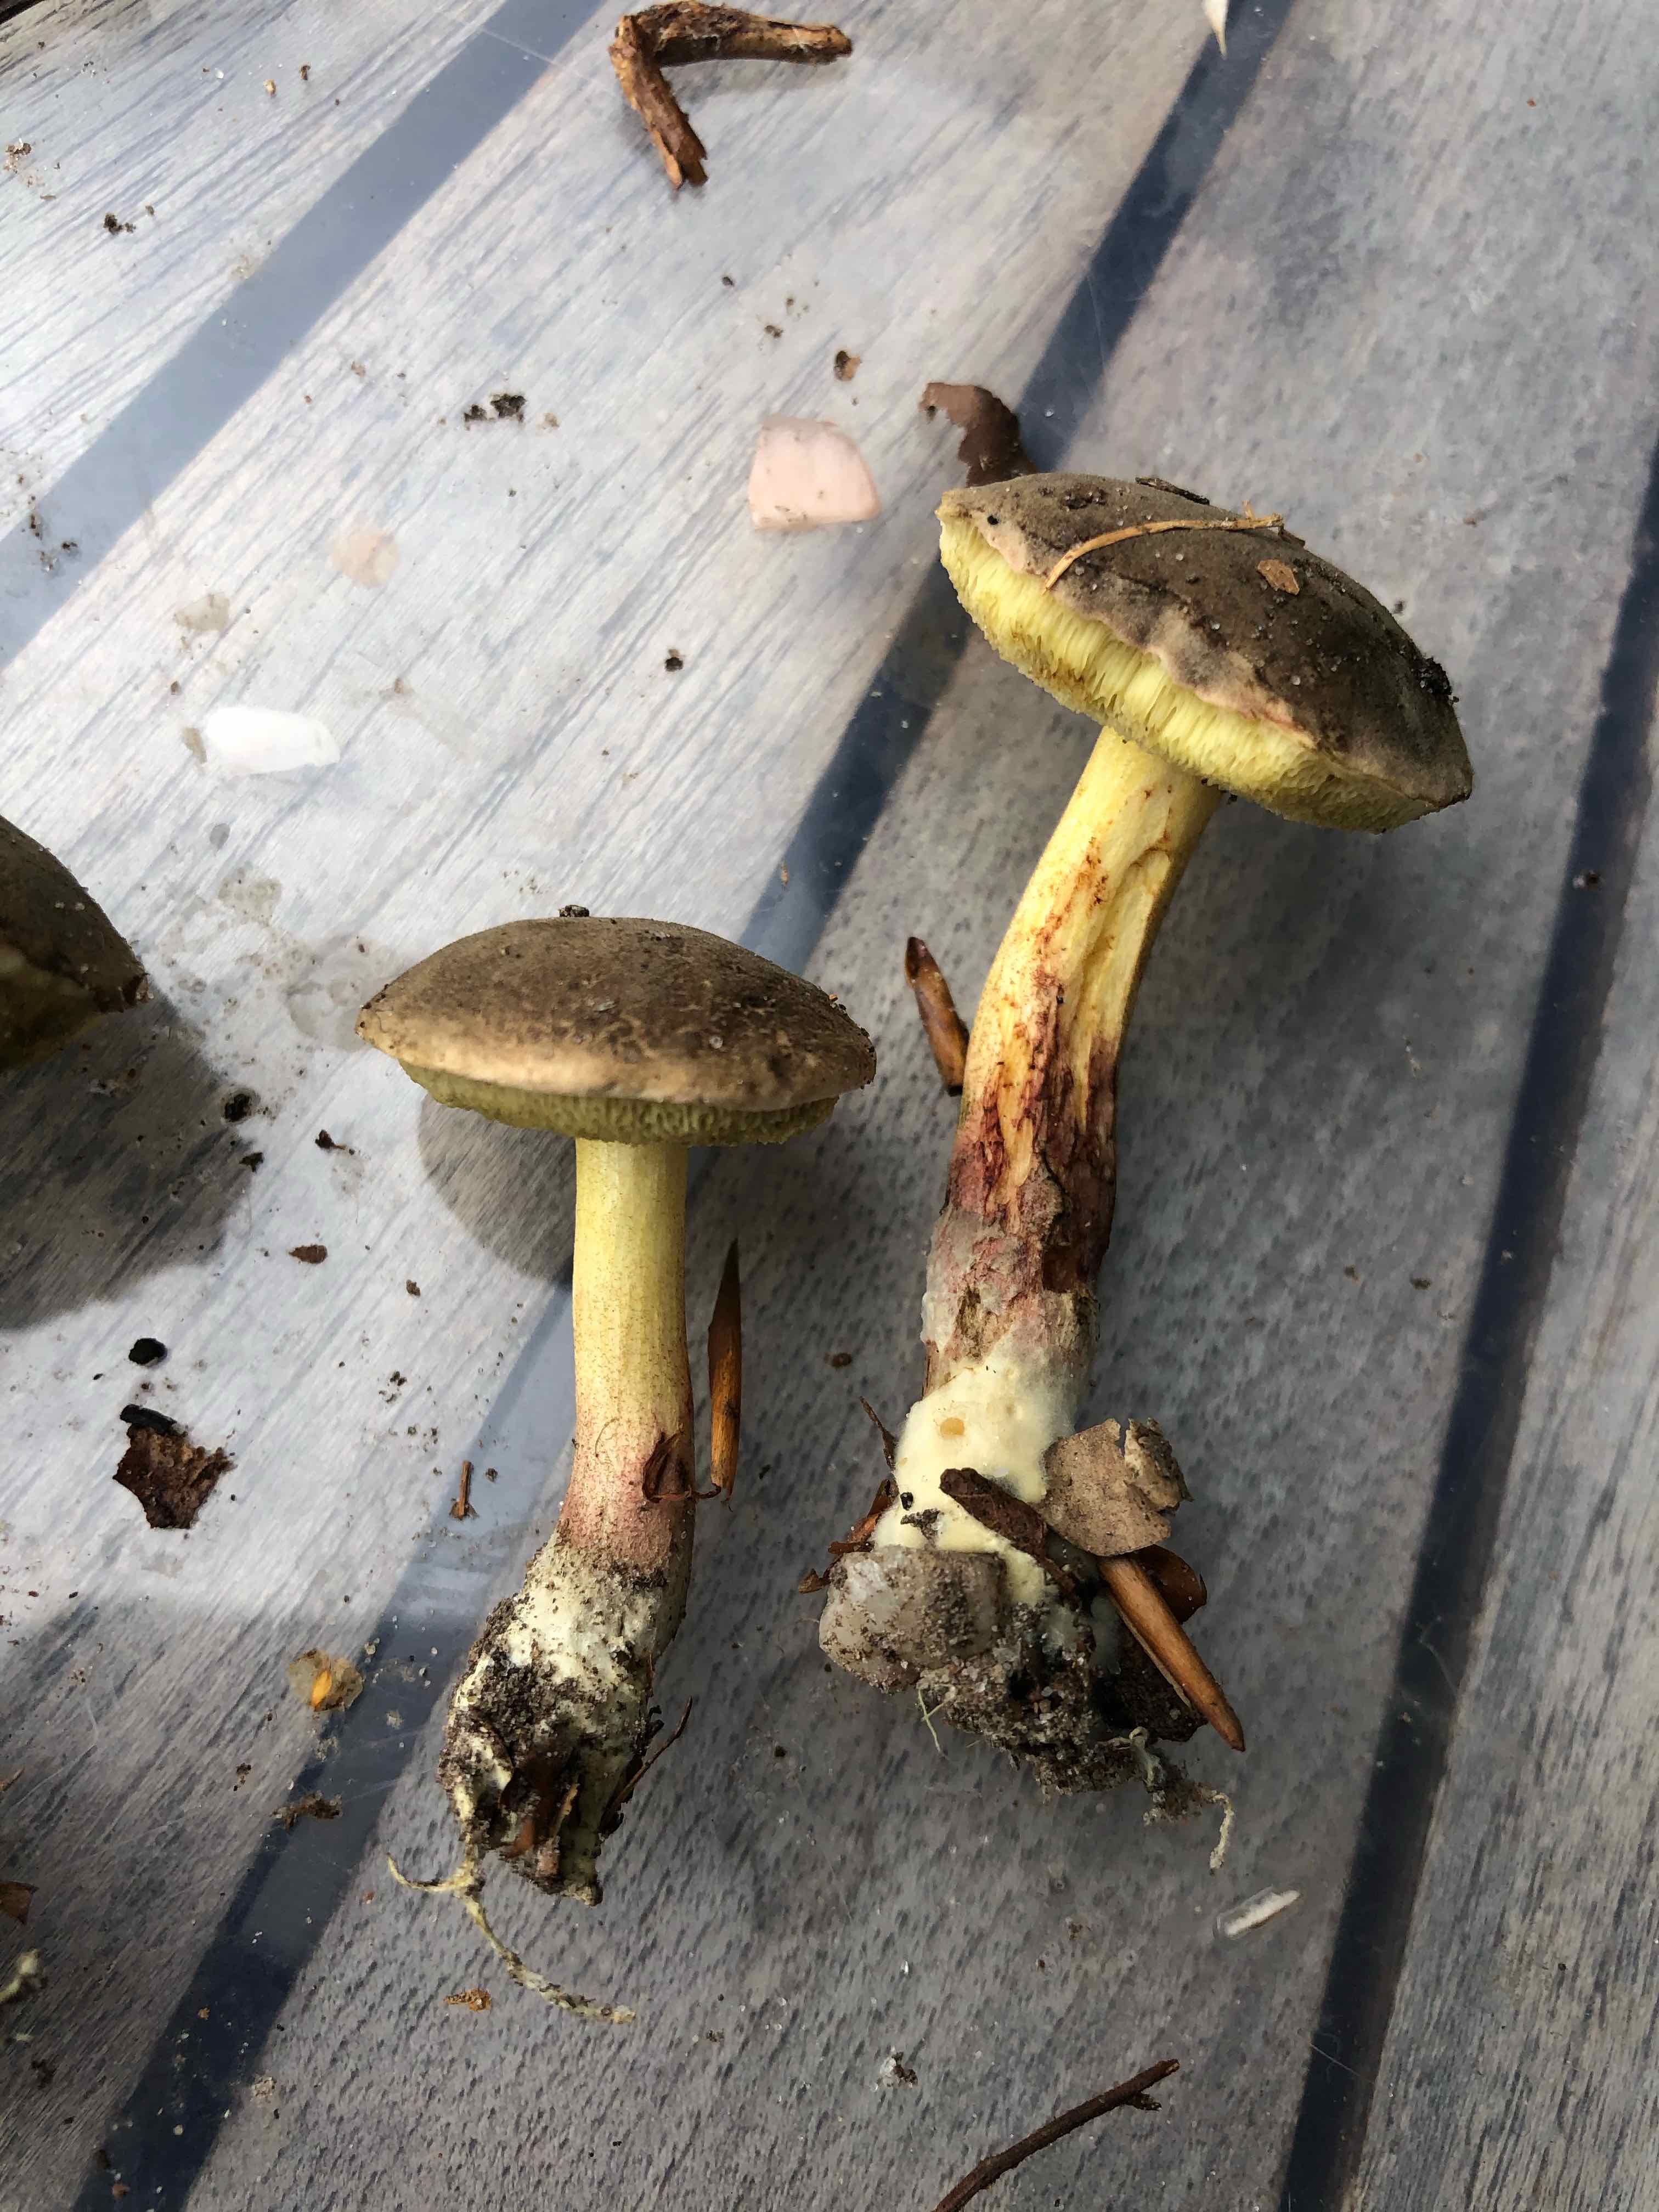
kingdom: Fungi
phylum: Basidiomycota
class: Agaricomycetes
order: Boletales
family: Boletaceae
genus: Xerocomellus
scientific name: Xerocomellus chrysenteron
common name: rødsprukken rørhat
